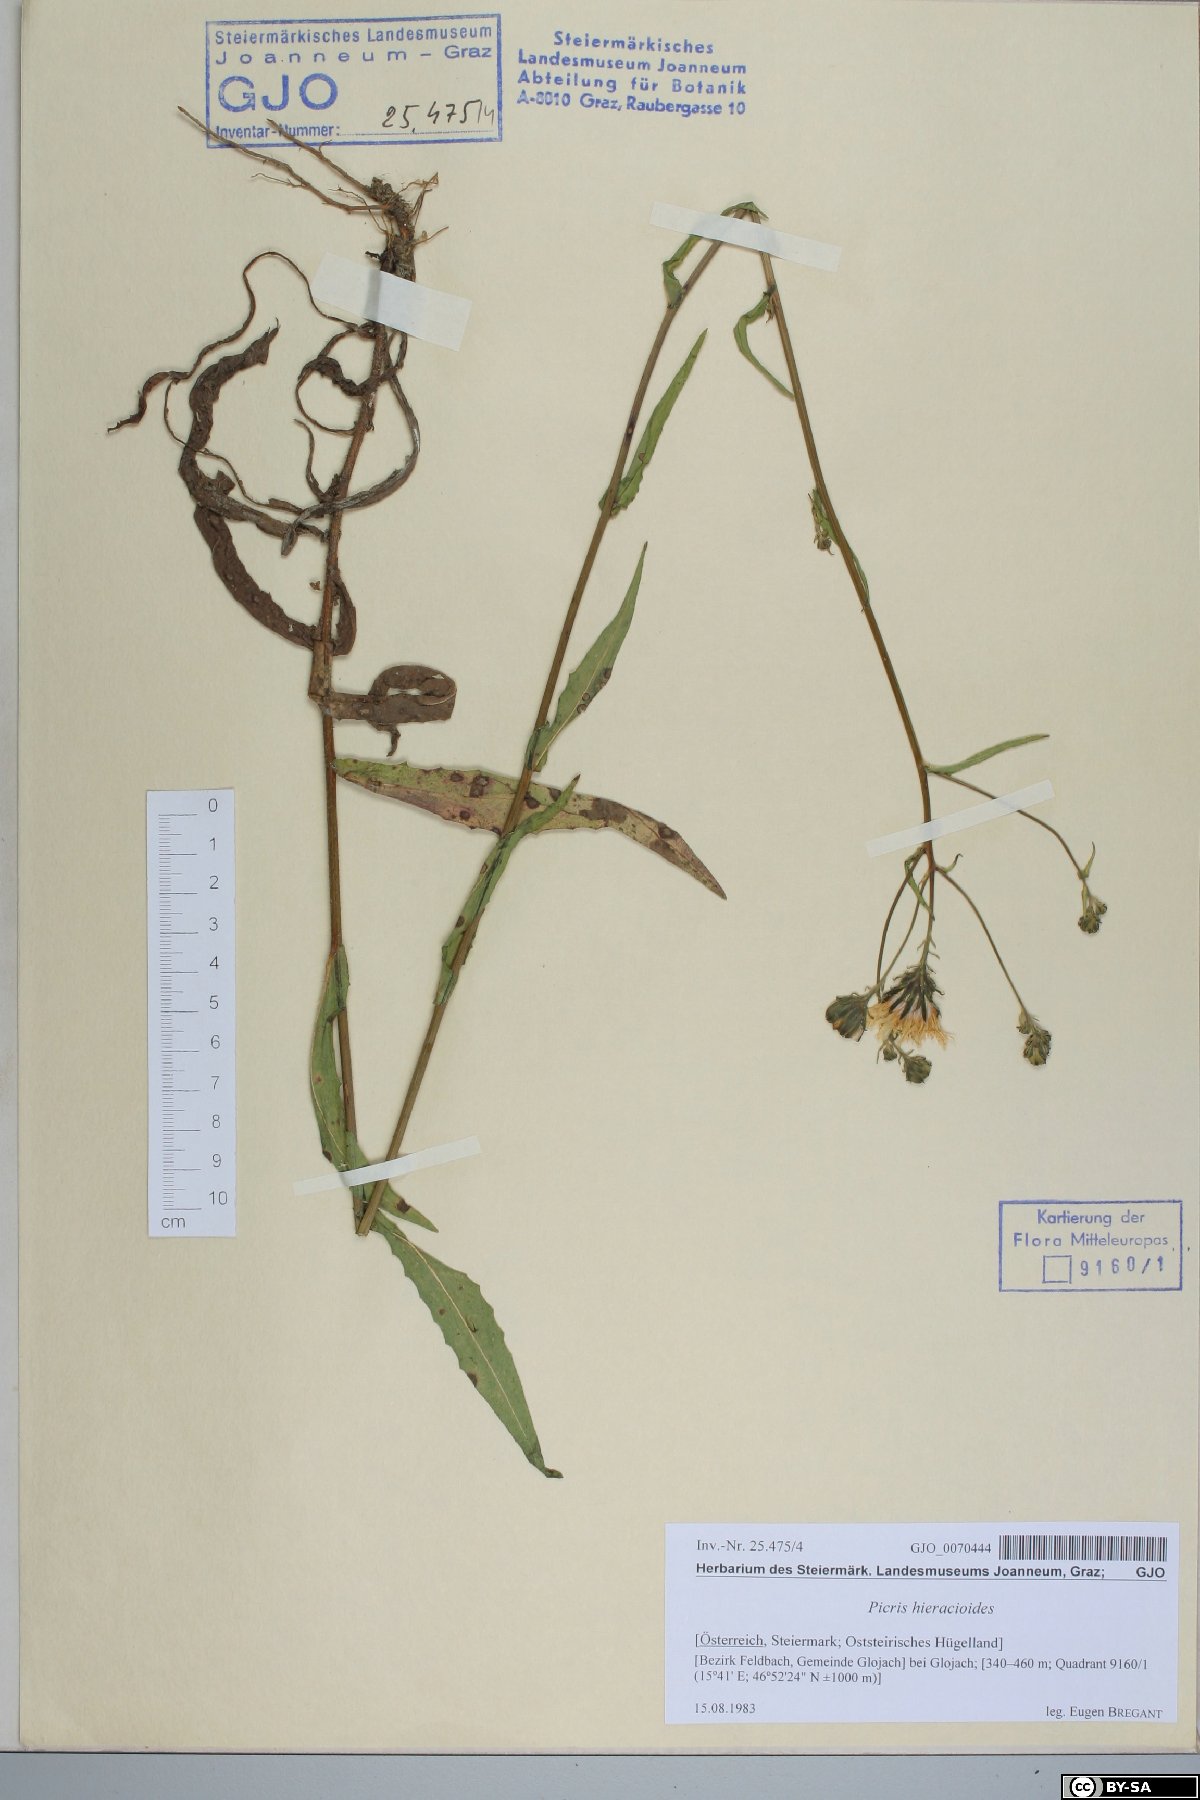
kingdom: Plantae
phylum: Tracheophyta
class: Magnoliopsida
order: Asterales
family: Asteraceae
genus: Picris
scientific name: Picris hieracioides
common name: Hawkweed oxtongue
